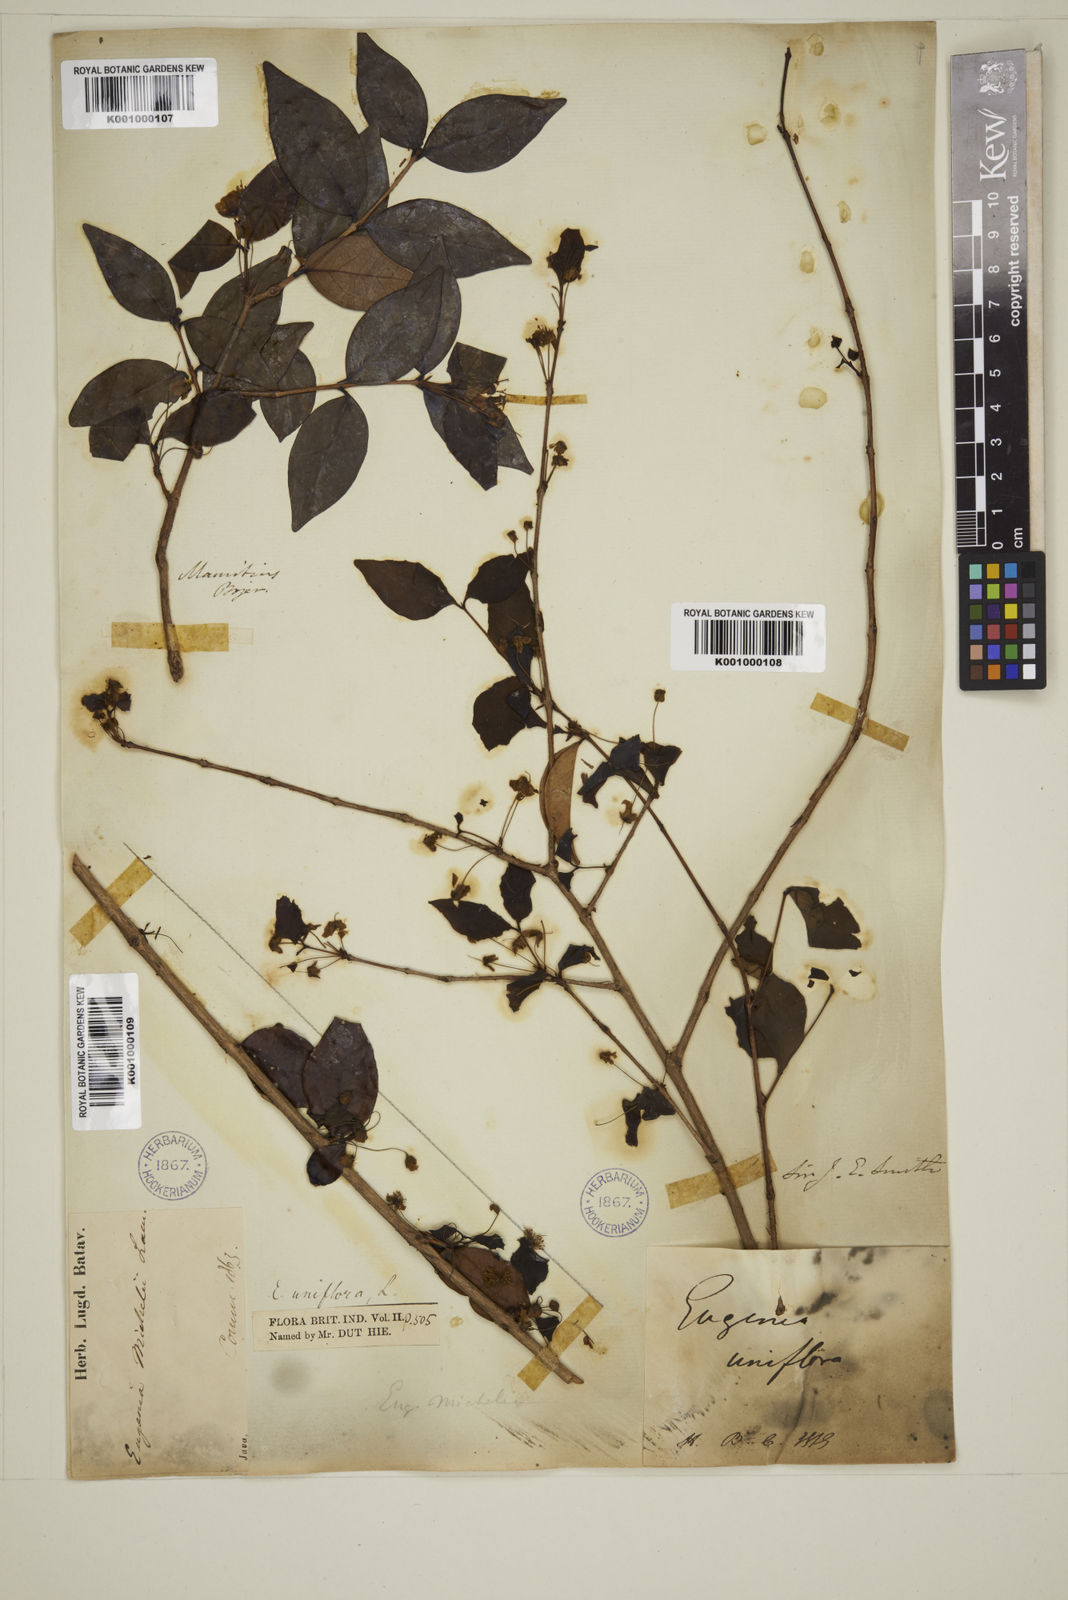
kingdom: Plantae
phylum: Tracheophyta
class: Magnoliopsida
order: Myrtales
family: Myrtaceae
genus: Eugenia
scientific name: Eugenia uniflora
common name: Surinam cherry
